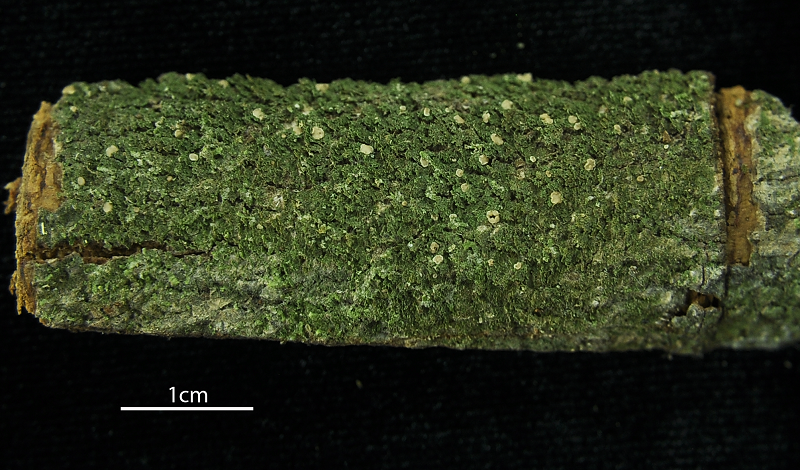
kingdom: Fungi
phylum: Ascomycota
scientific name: Ascomycota
